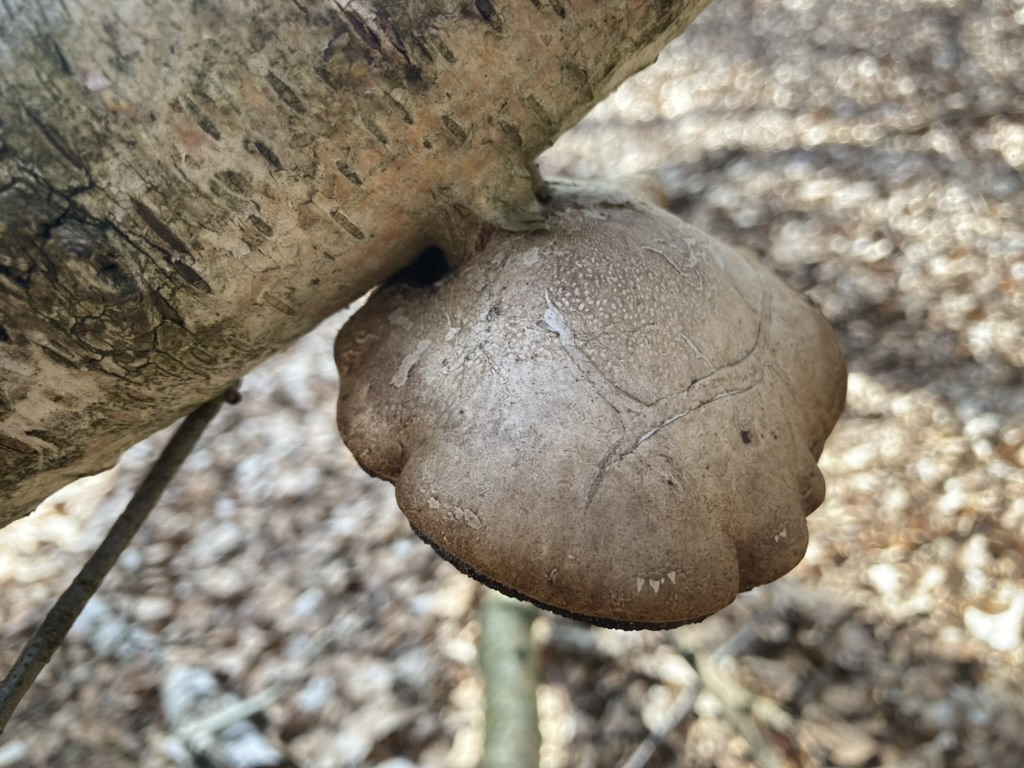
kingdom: Fungi
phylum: Basidiomycota
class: Agaricomycetes
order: Polyporales
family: Fomitopsidaceae
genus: Fomitopsis
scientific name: Fomitopsis betulina
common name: birkeporesvamp
